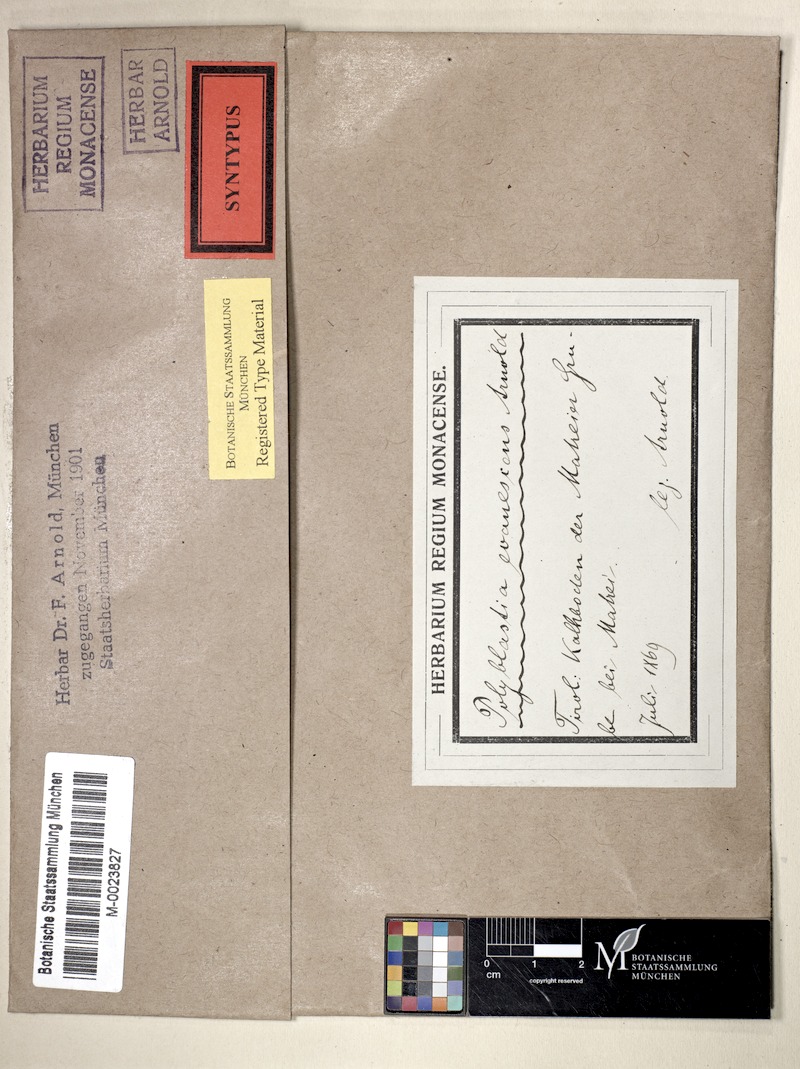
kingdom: Fungi
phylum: Ascomycota
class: Eurotiomycetes
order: Verrucariales
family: Verrucariaceae
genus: Polyblastia
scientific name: Polyblastia evanescens
